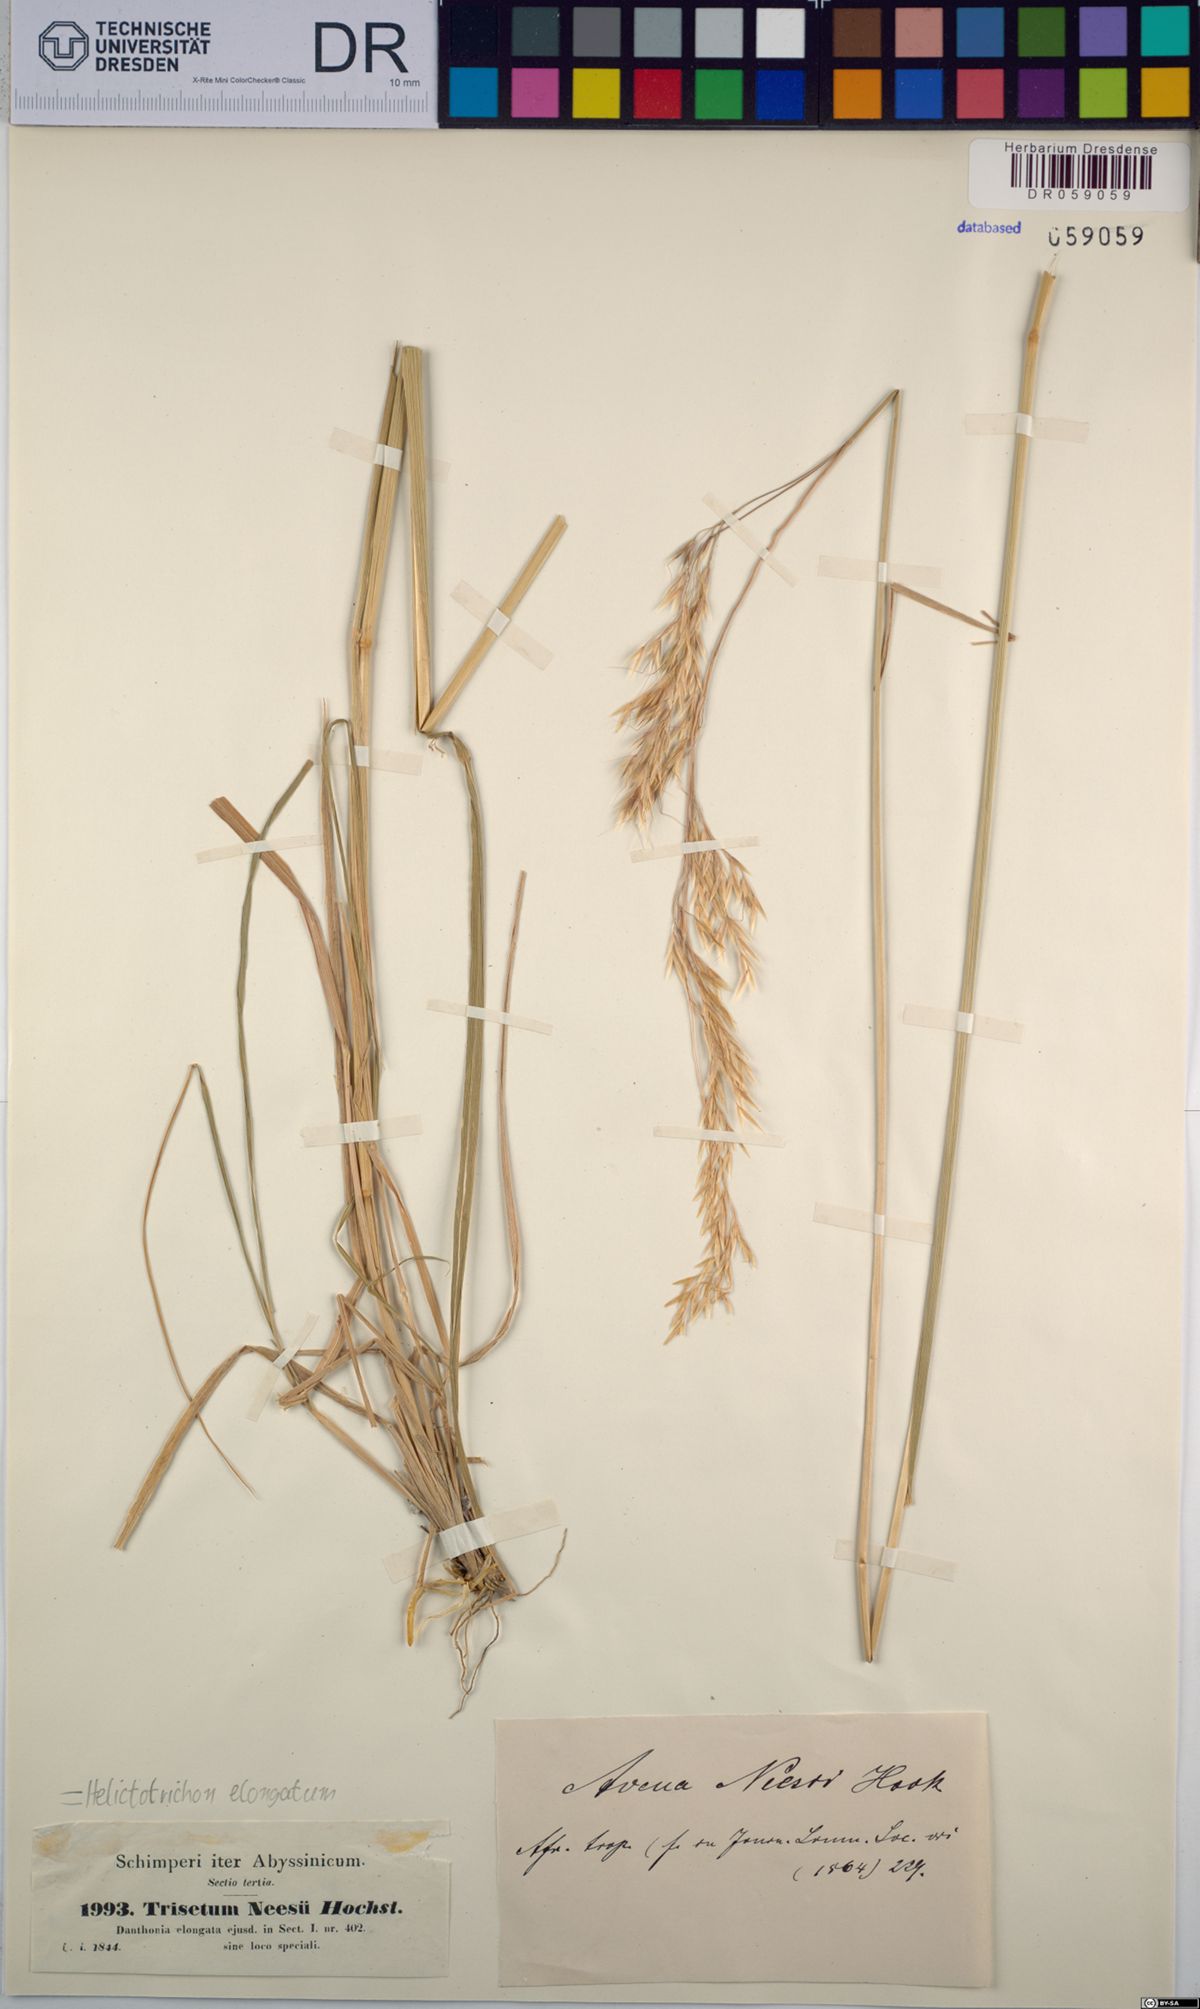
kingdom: Plantae
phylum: Tracheophyta
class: Liliopsida
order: Poales
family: Poaceae
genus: Trisetopsis
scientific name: Trisetopsis elongata
